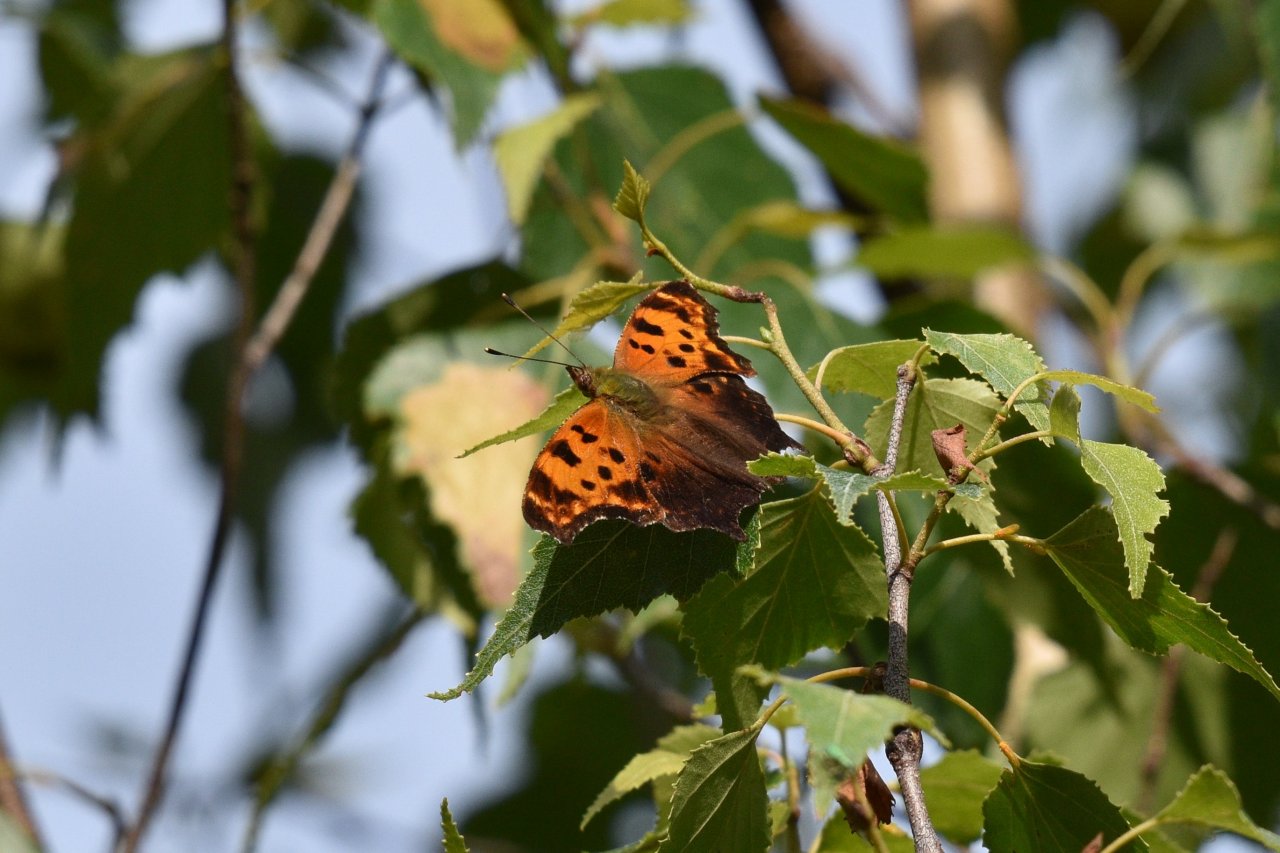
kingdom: Animalia
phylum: Arthropoda
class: Insecta
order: Lepidoptera
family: Nymphalidae
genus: Polygonia
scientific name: Polygonia comma
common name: Eastern Comma
